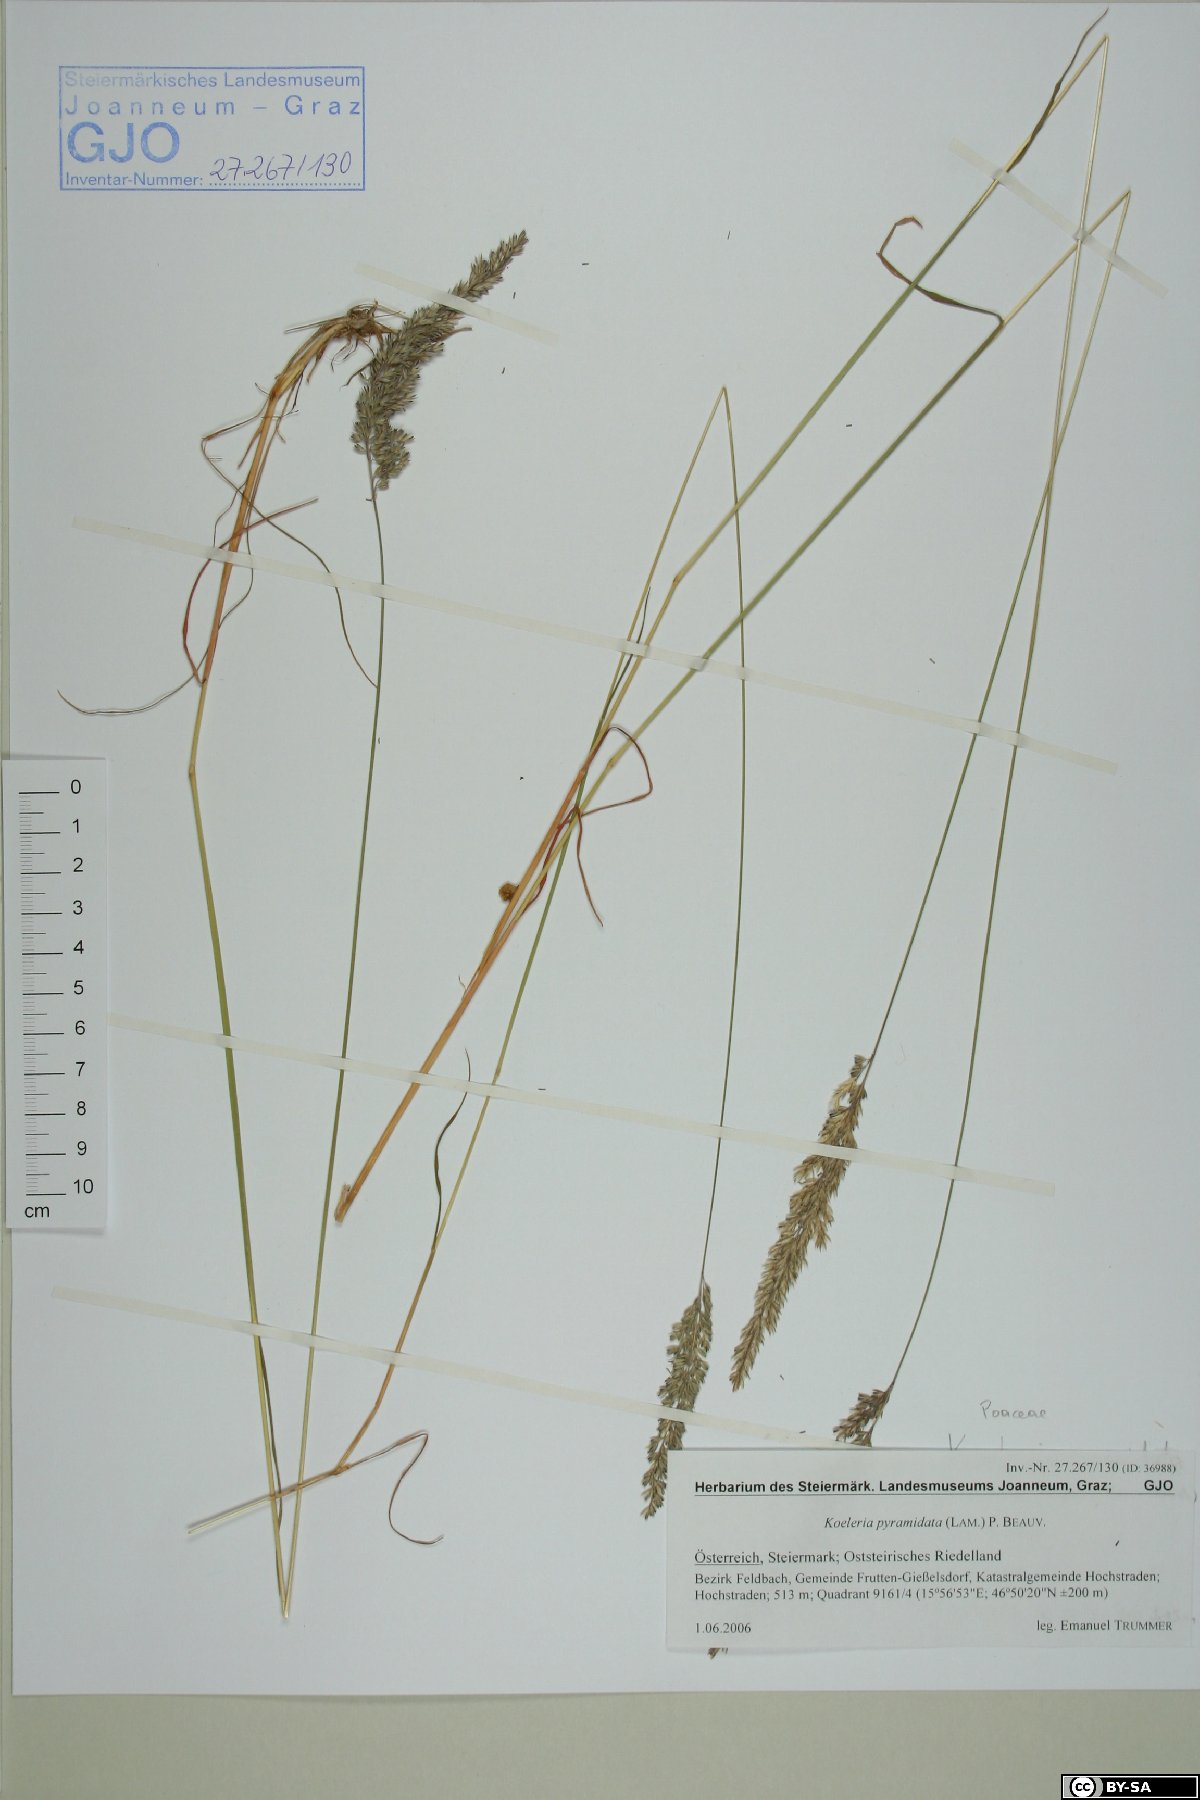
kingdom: Plantae
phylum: Tracheophyta
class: Liliopsida
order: Poales
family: Poaceae
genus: Koeleria
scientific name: Koeleria pyramidata
